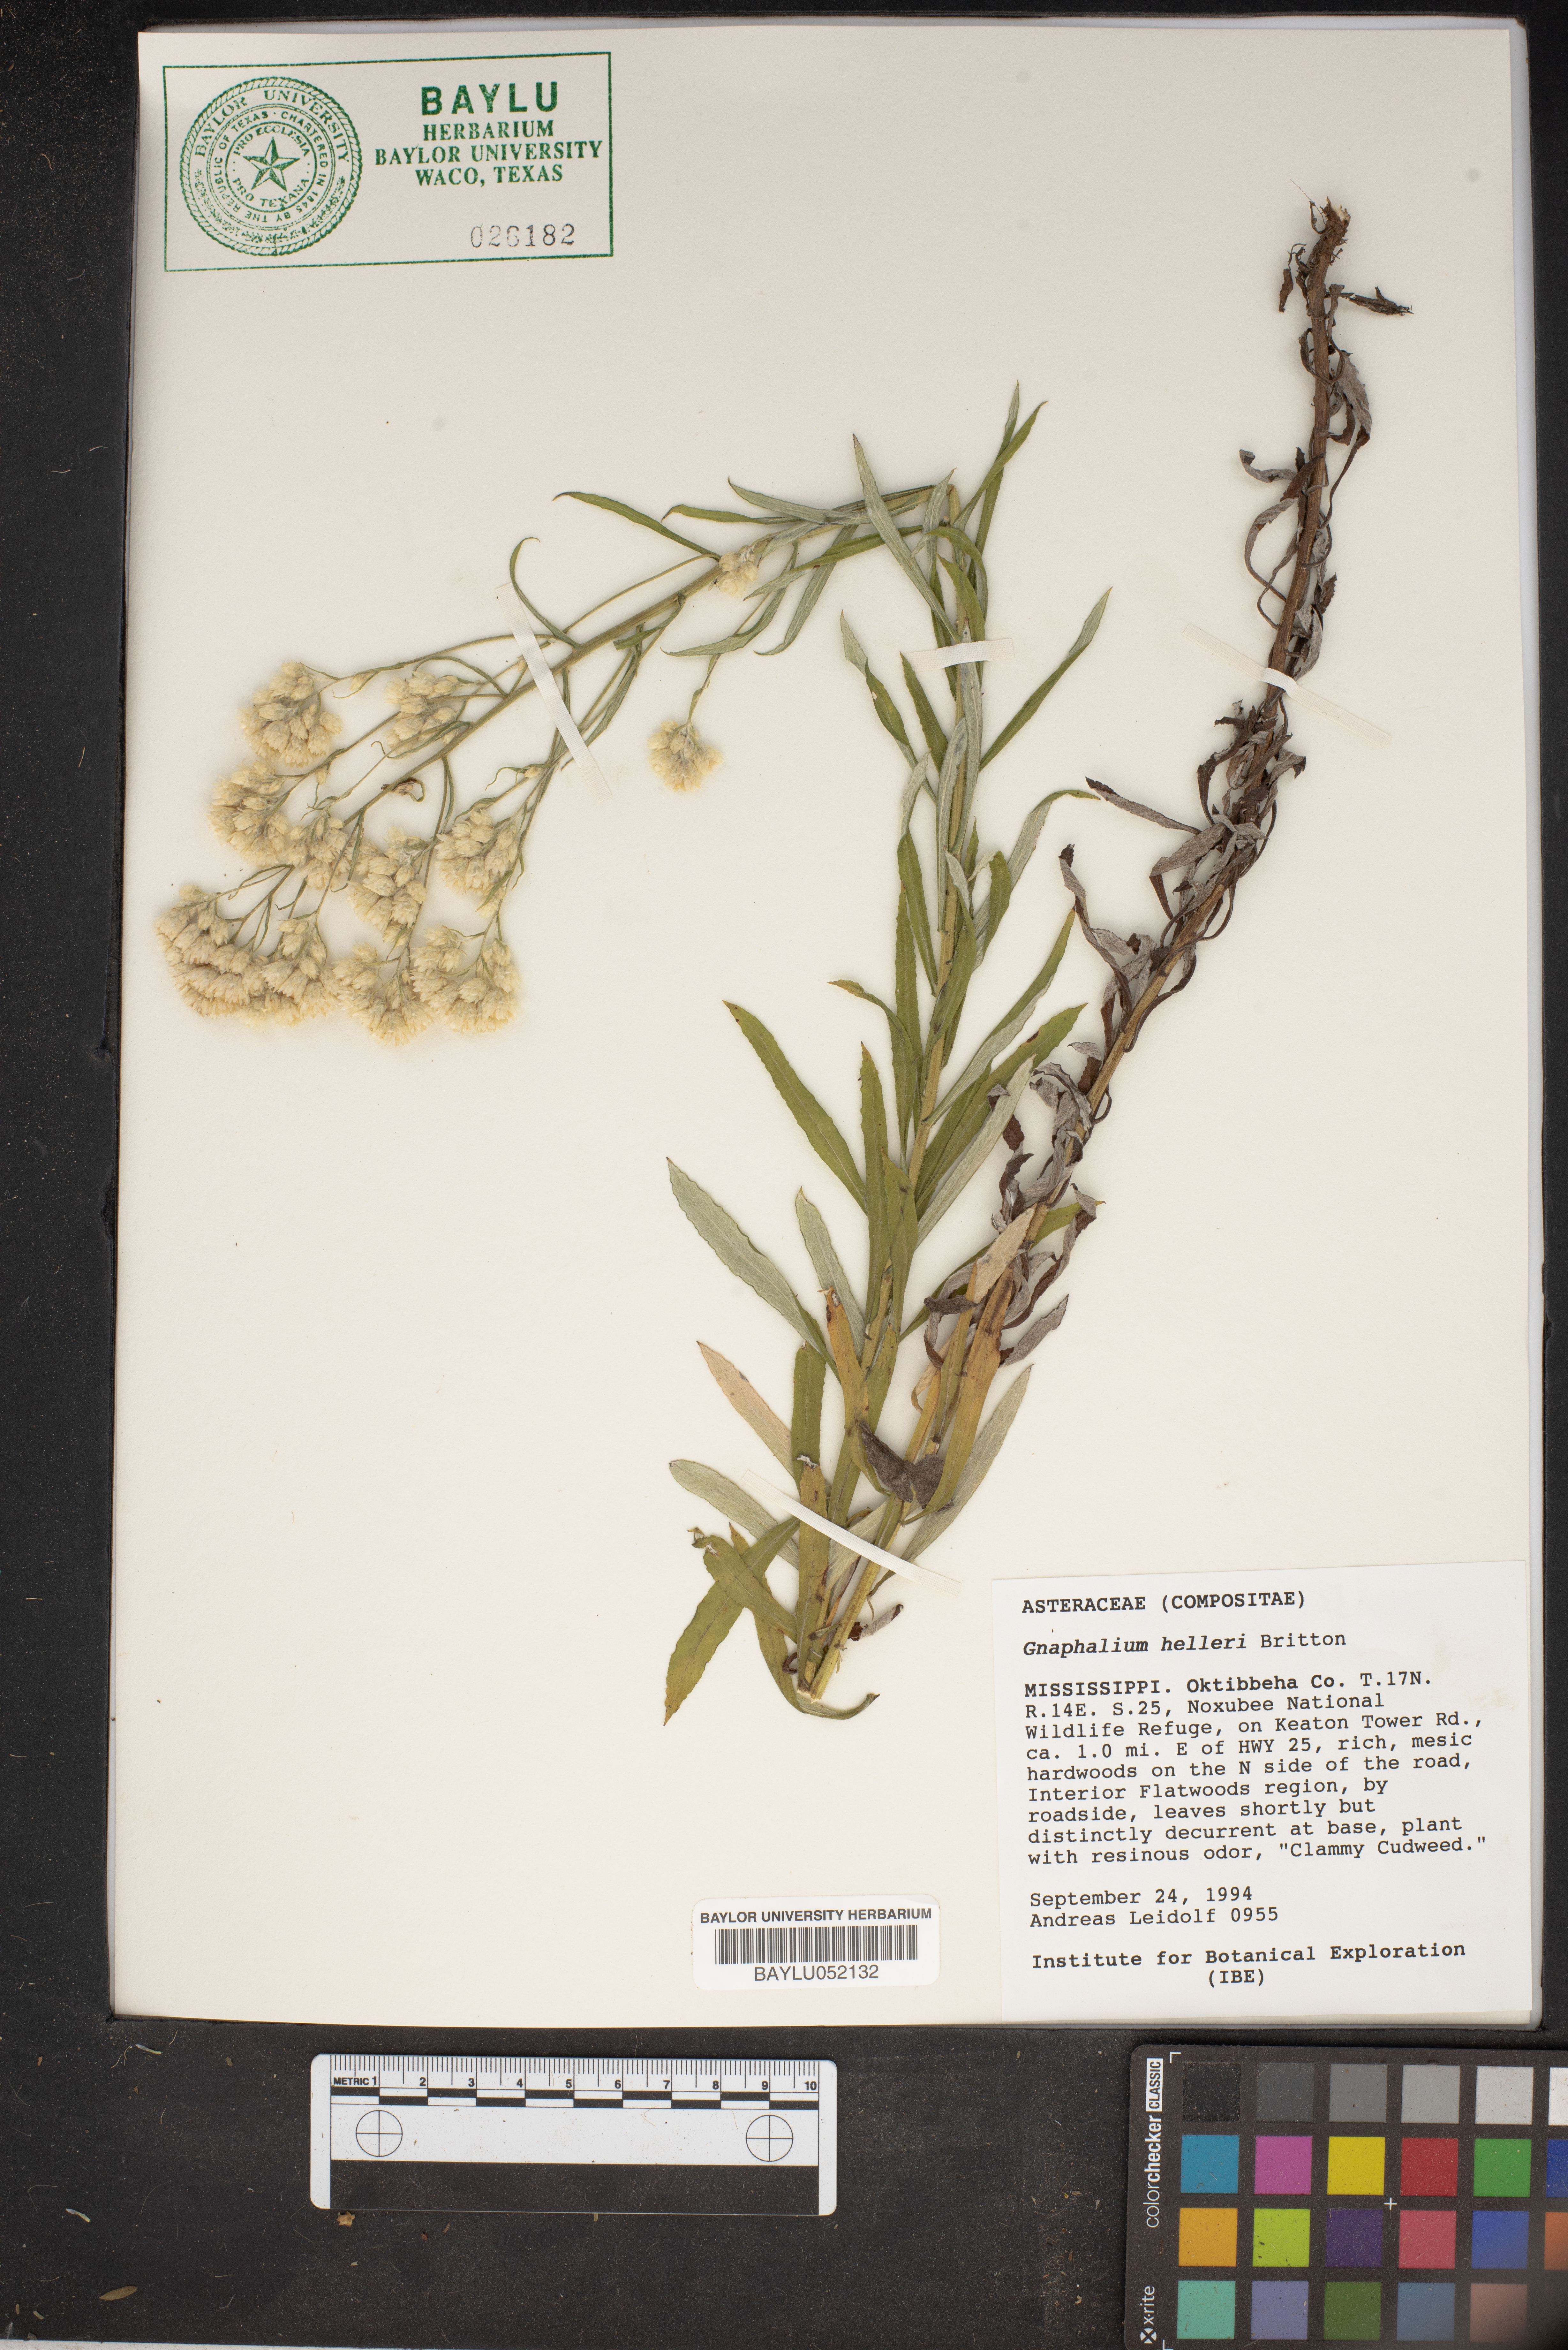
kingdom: Plantae
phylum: Tracheophyta
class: Magnoliopsida
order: Asterales
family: Asteraceae
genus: Pseudognaphalium
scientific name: Pseudognaphalium helleri
